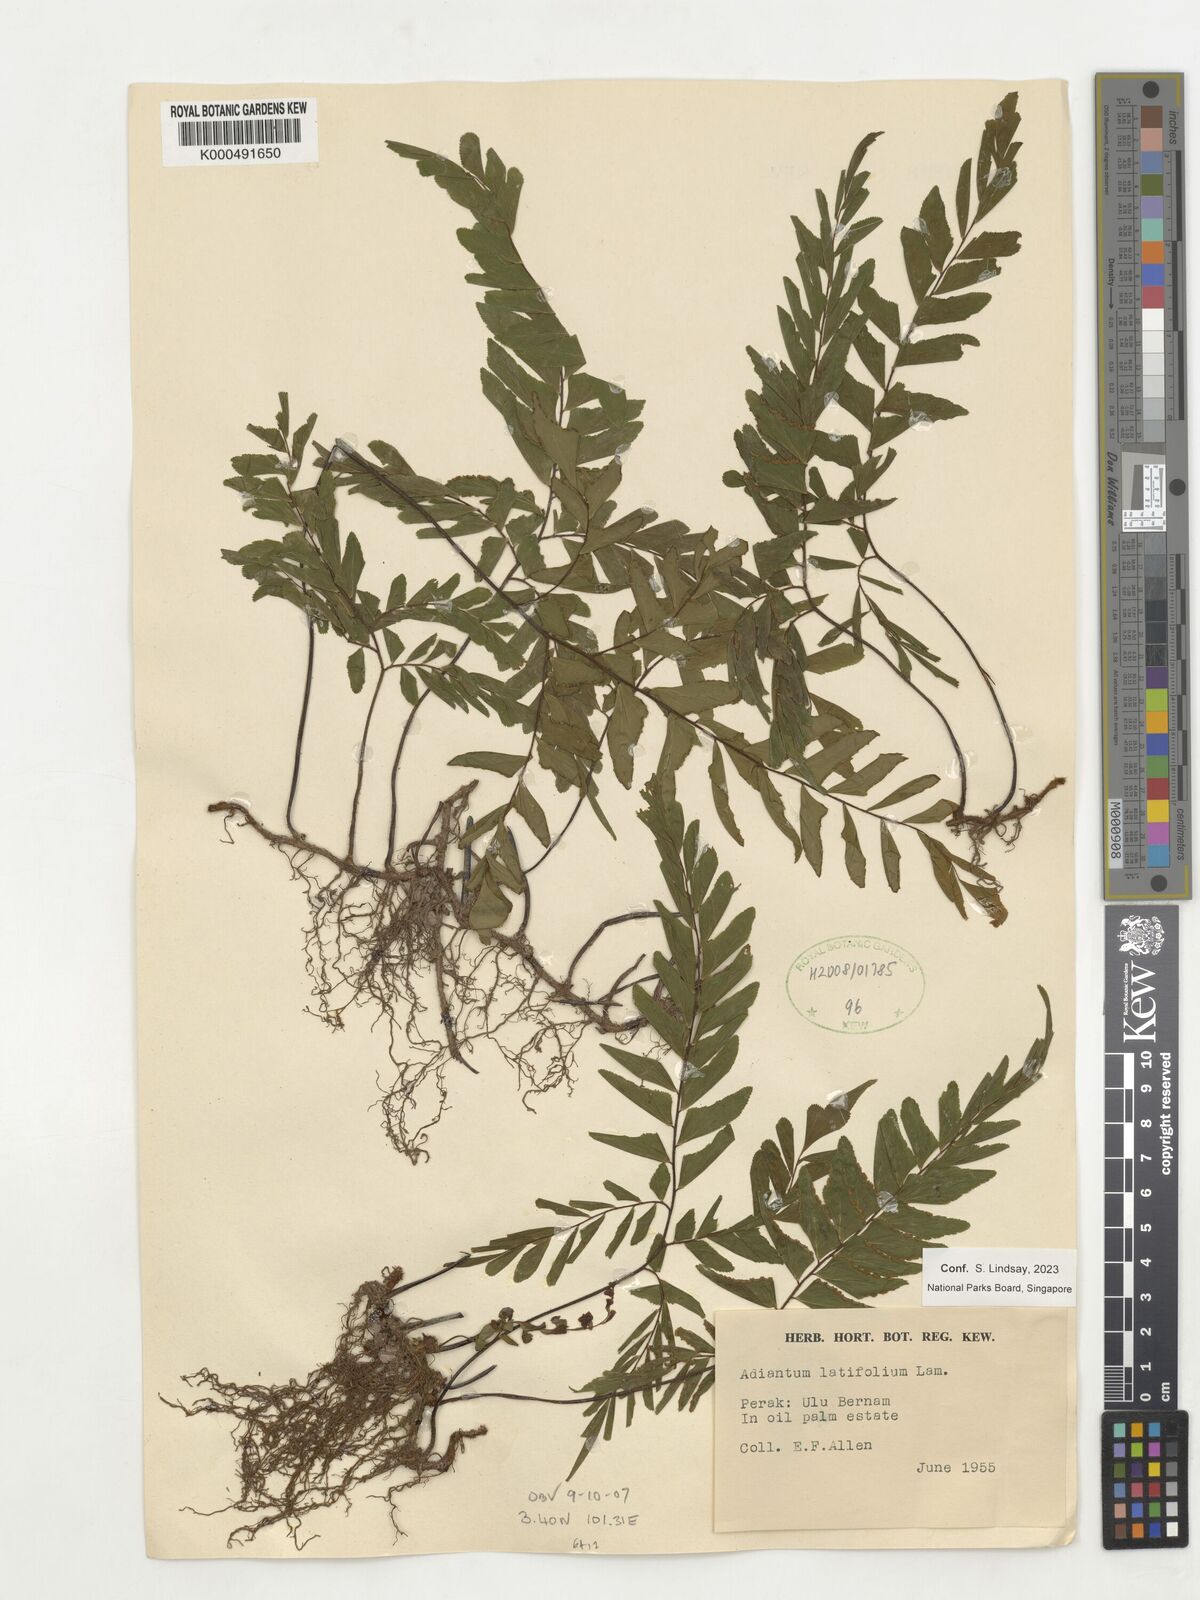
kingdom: Plantae
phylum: Tracheophyta
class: Polypodiopsida
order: Polypodiales
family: Pteridaceae
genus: Adiantum
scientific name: Adiantum latifolium
